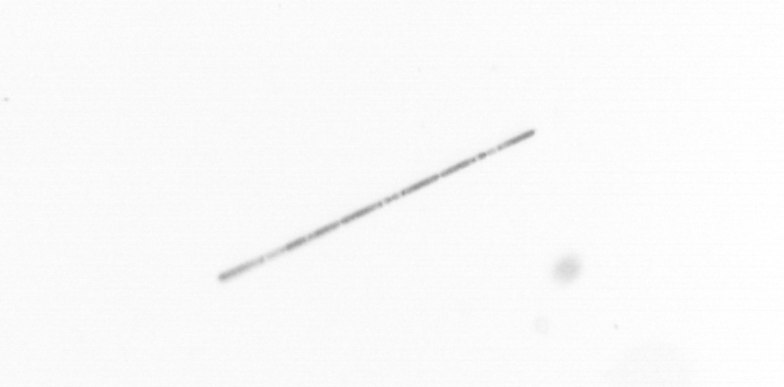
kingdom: Chromista
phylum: Ochrophyta
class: Bacillariophyceae
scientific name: Bacillariophyceae
